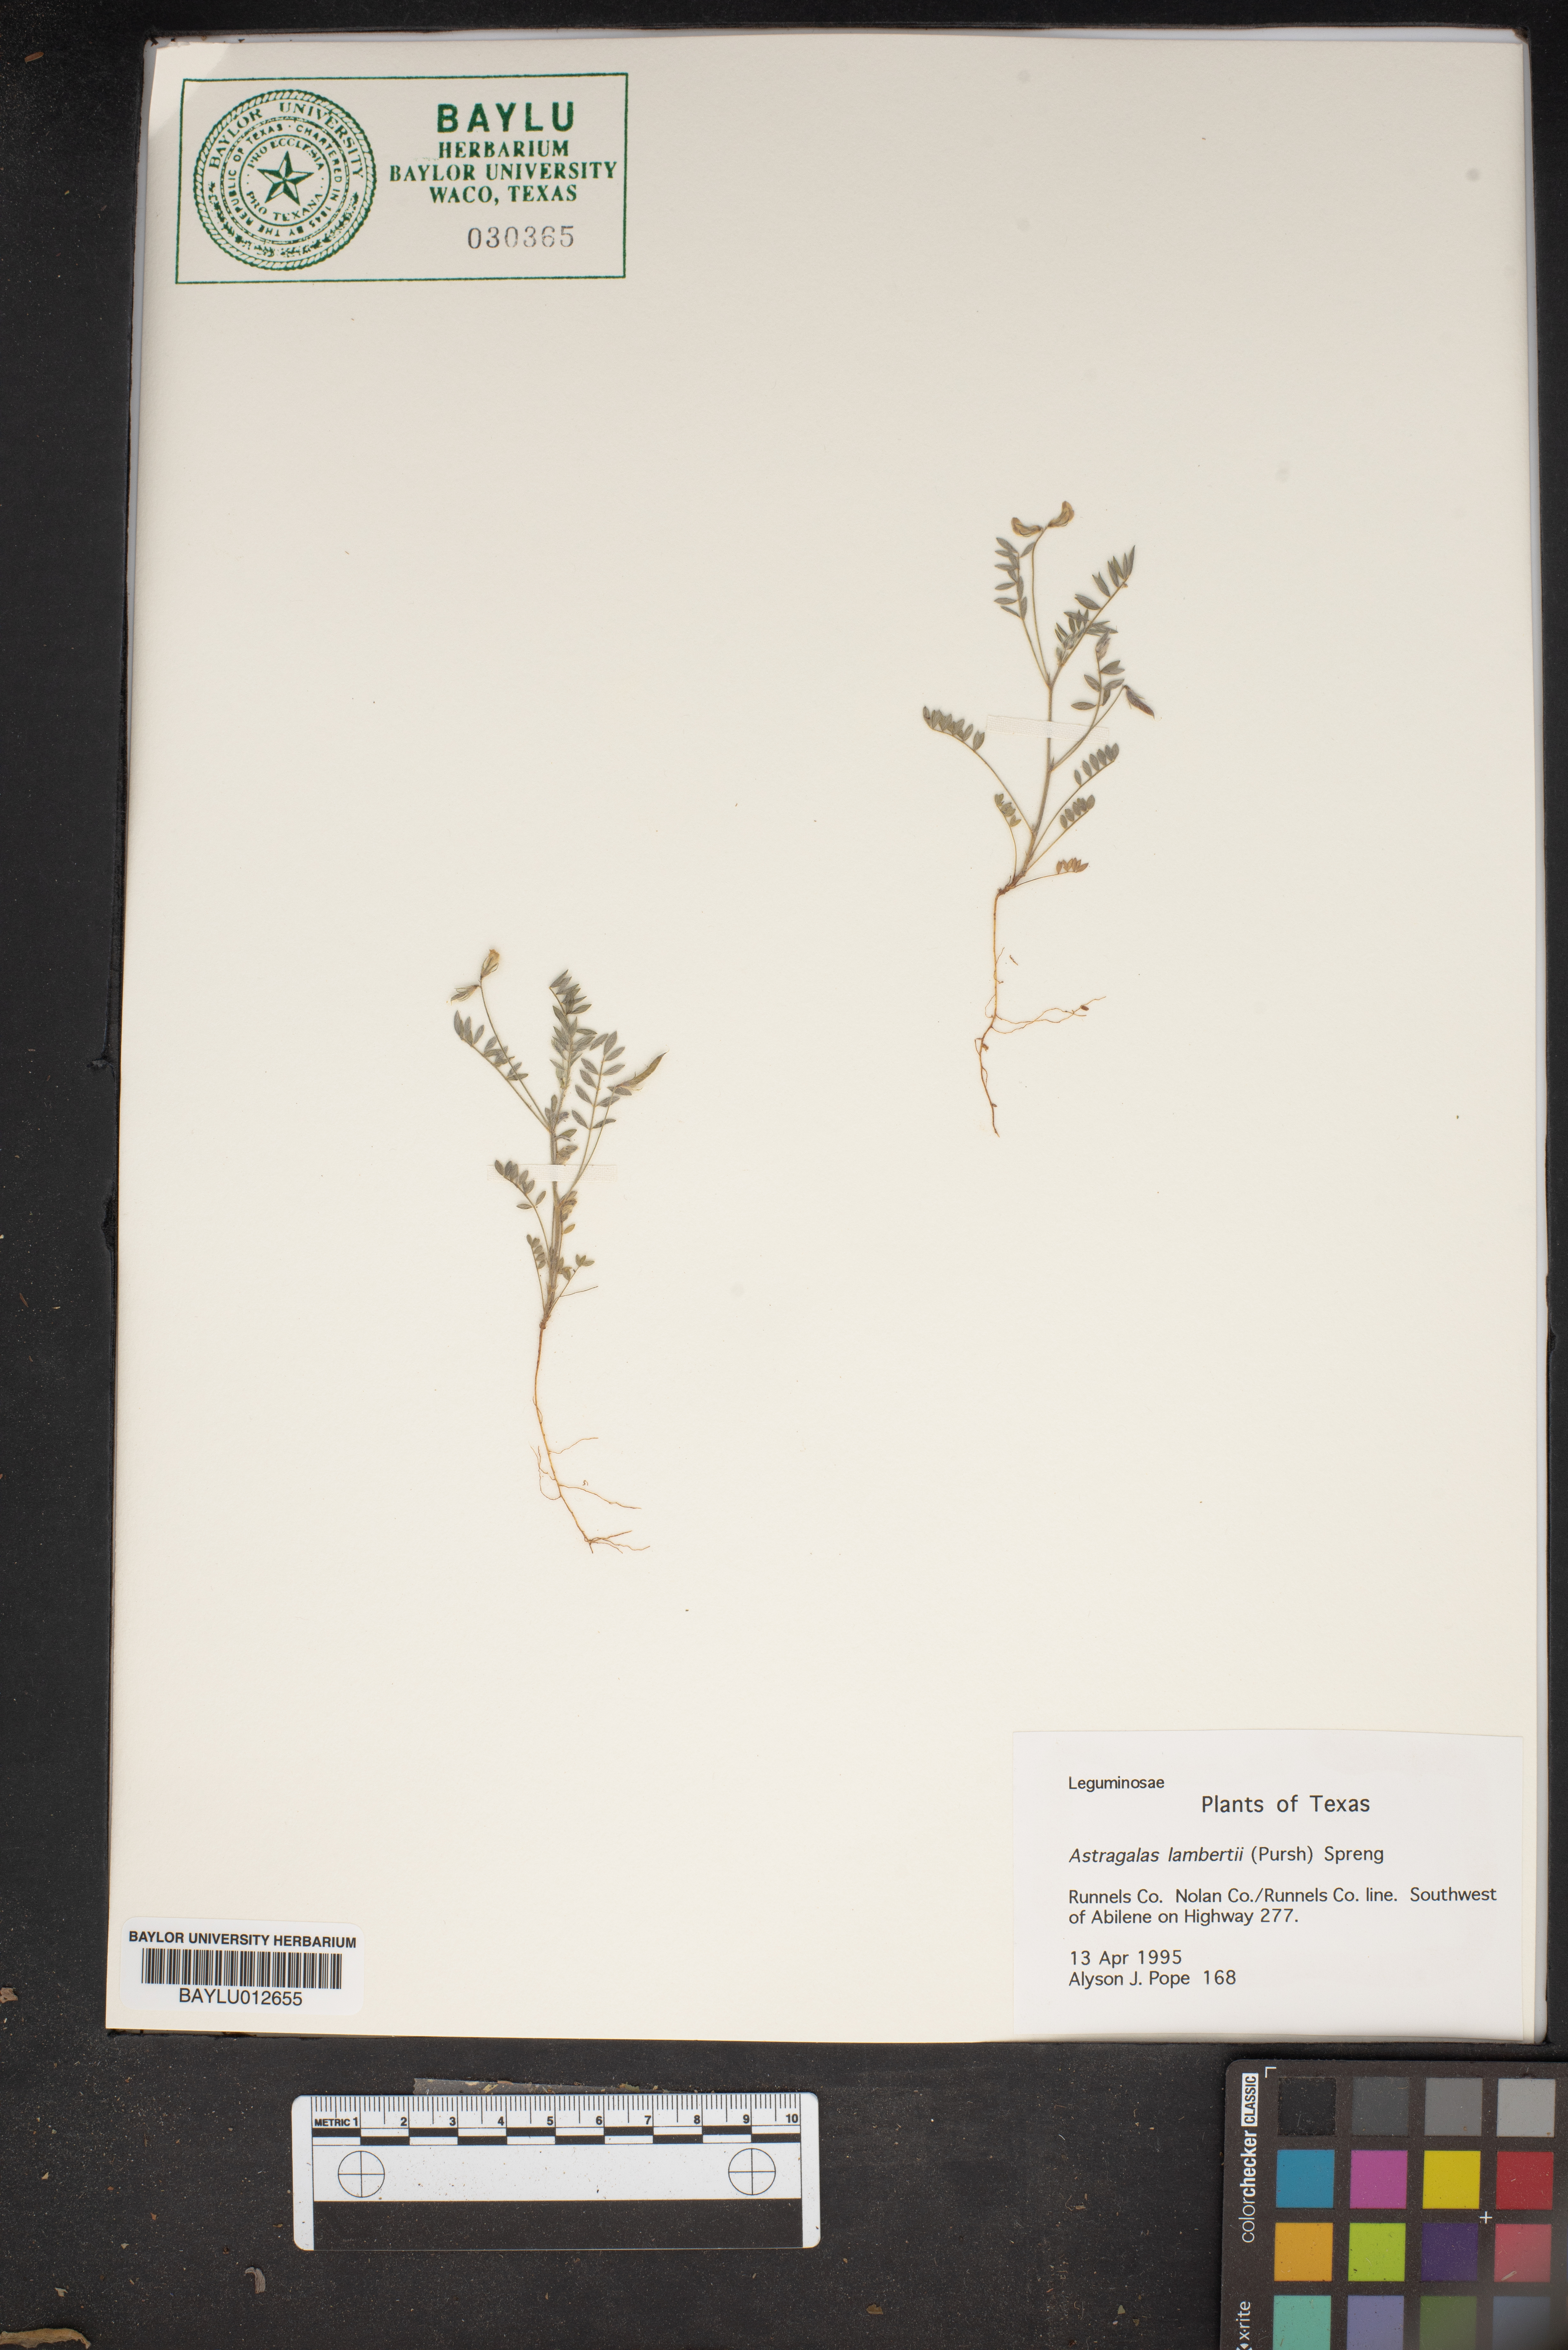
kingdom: Plantae
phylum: Tracheophyta
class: Magnoliopsida
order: Fabales
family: Fabaceae
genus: Oxytropis
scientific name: Oxytropis lambertii
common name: Purple locoweed
